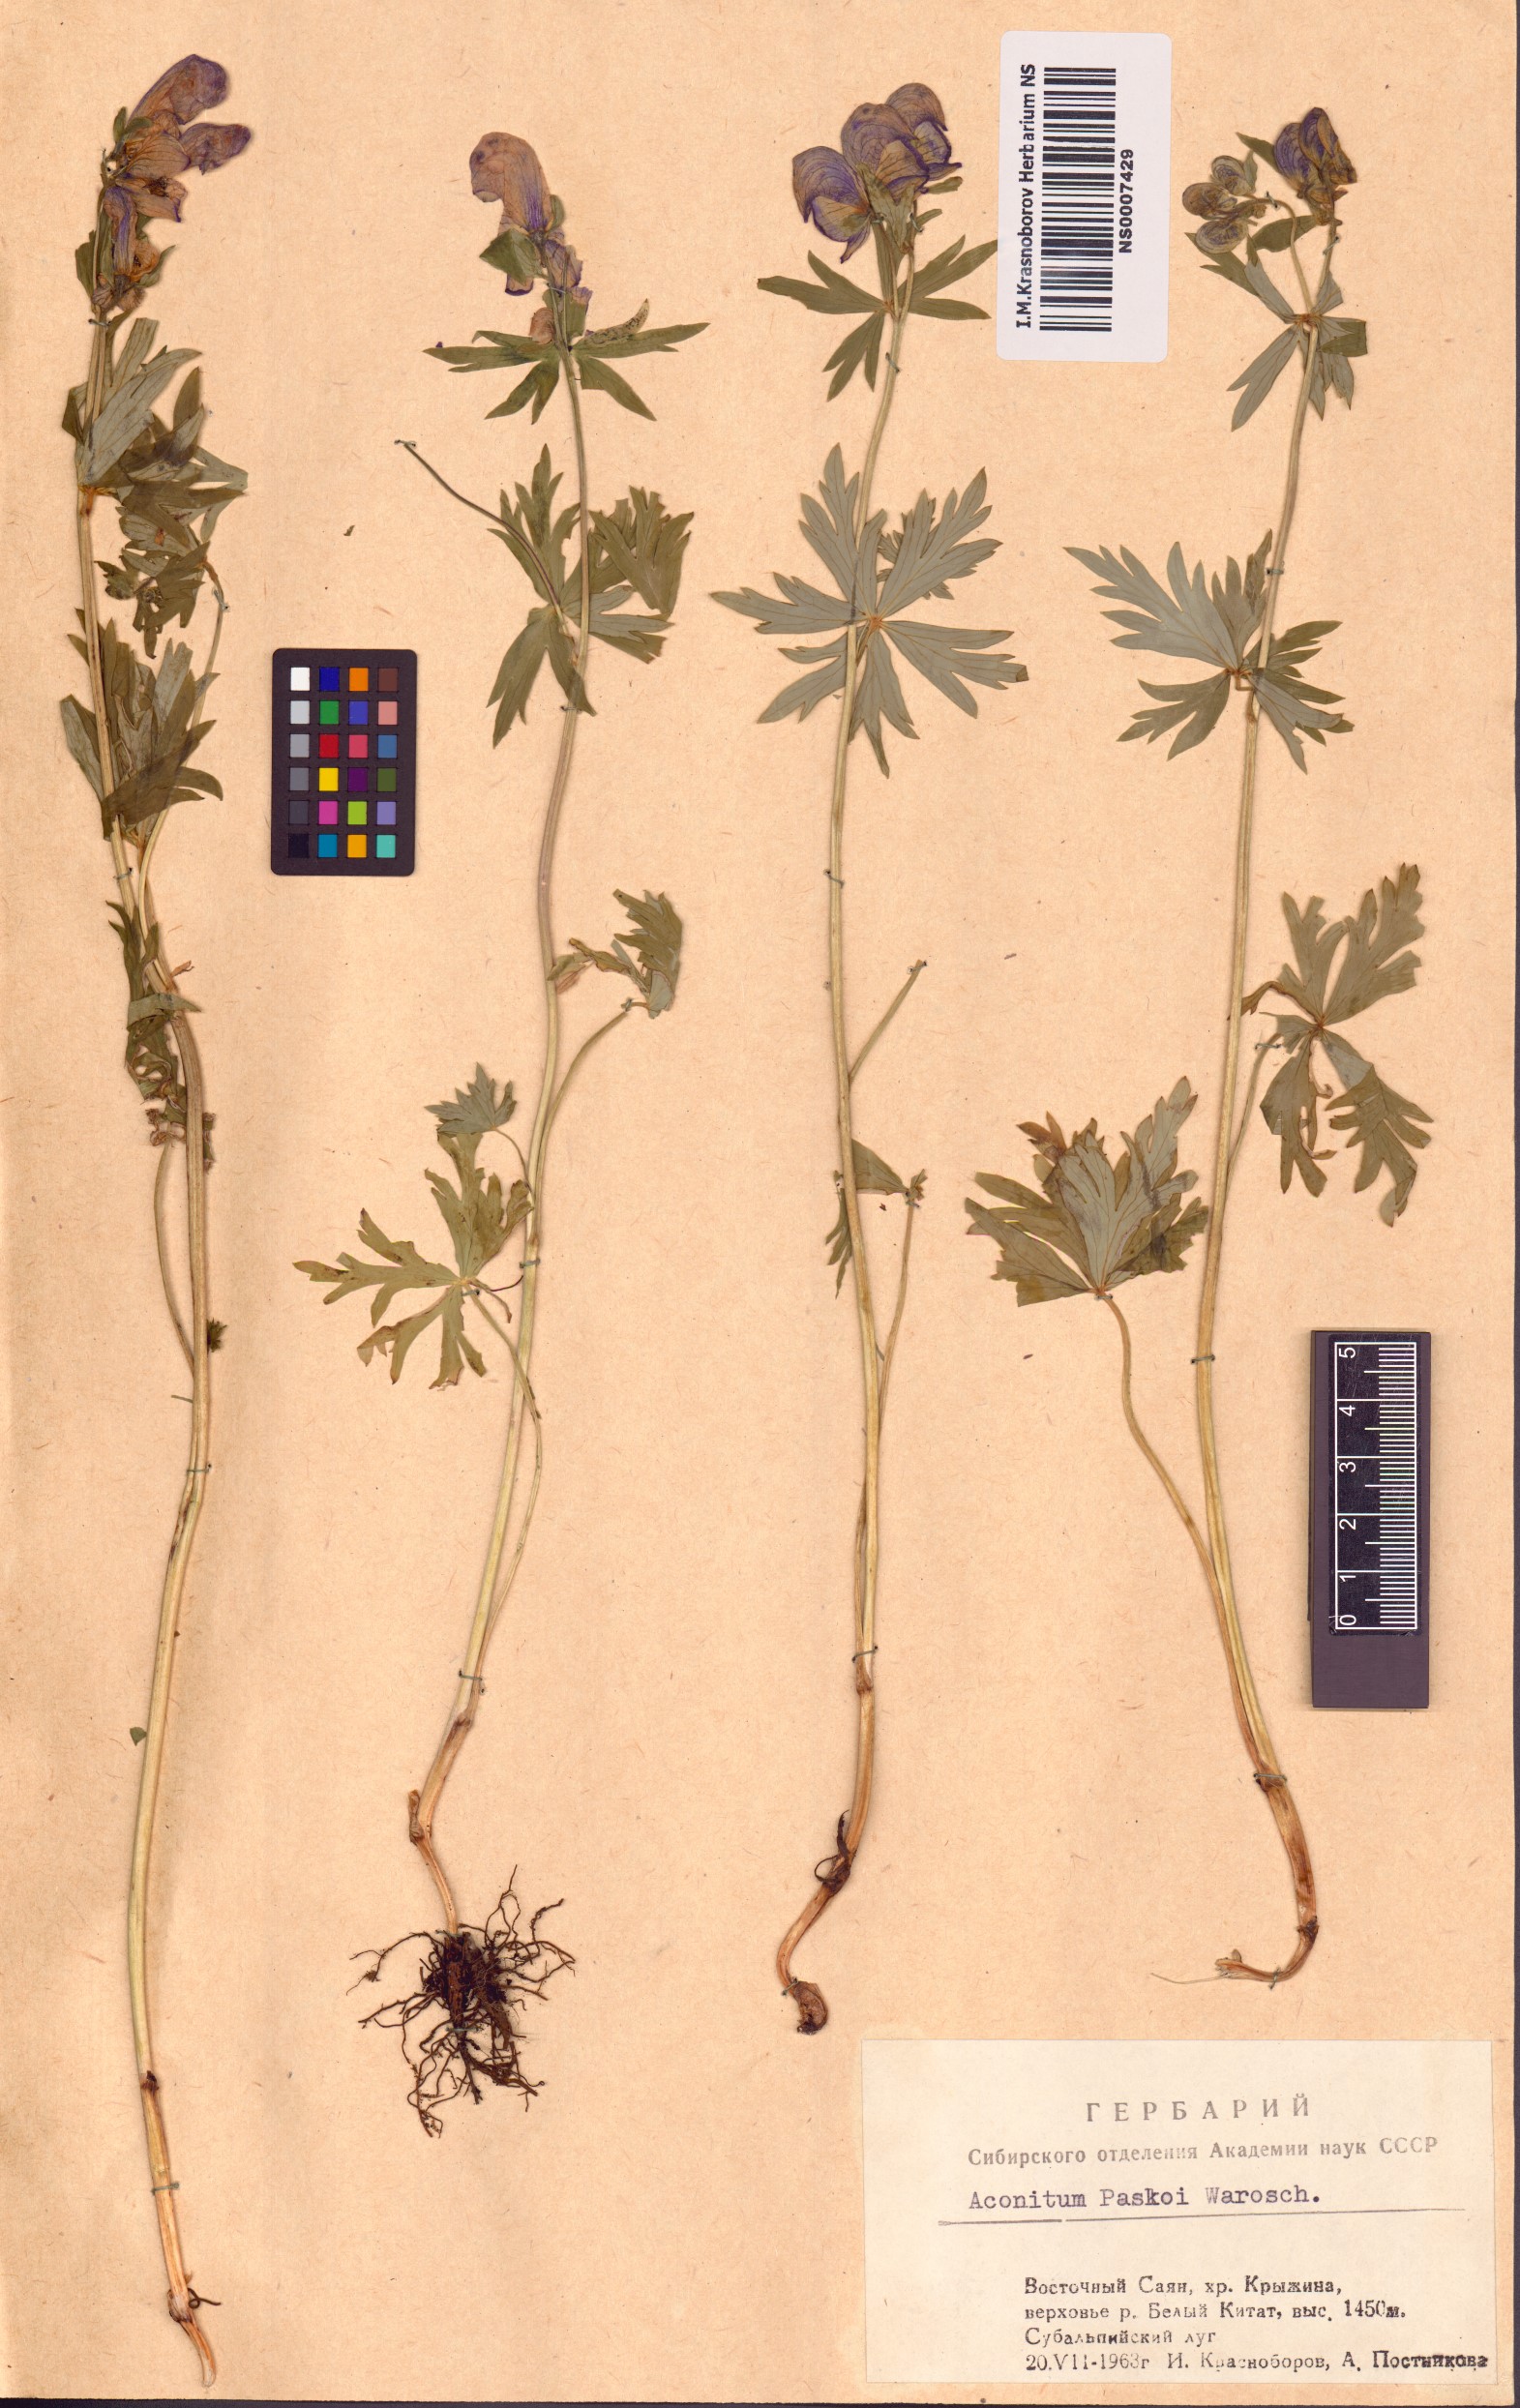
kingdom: Plantae
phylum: Tracheophyta
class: Magnoliopsida
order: Ranunculales
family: Ranunculaceae
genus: Aconitum
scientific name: Aconitum pascoi
